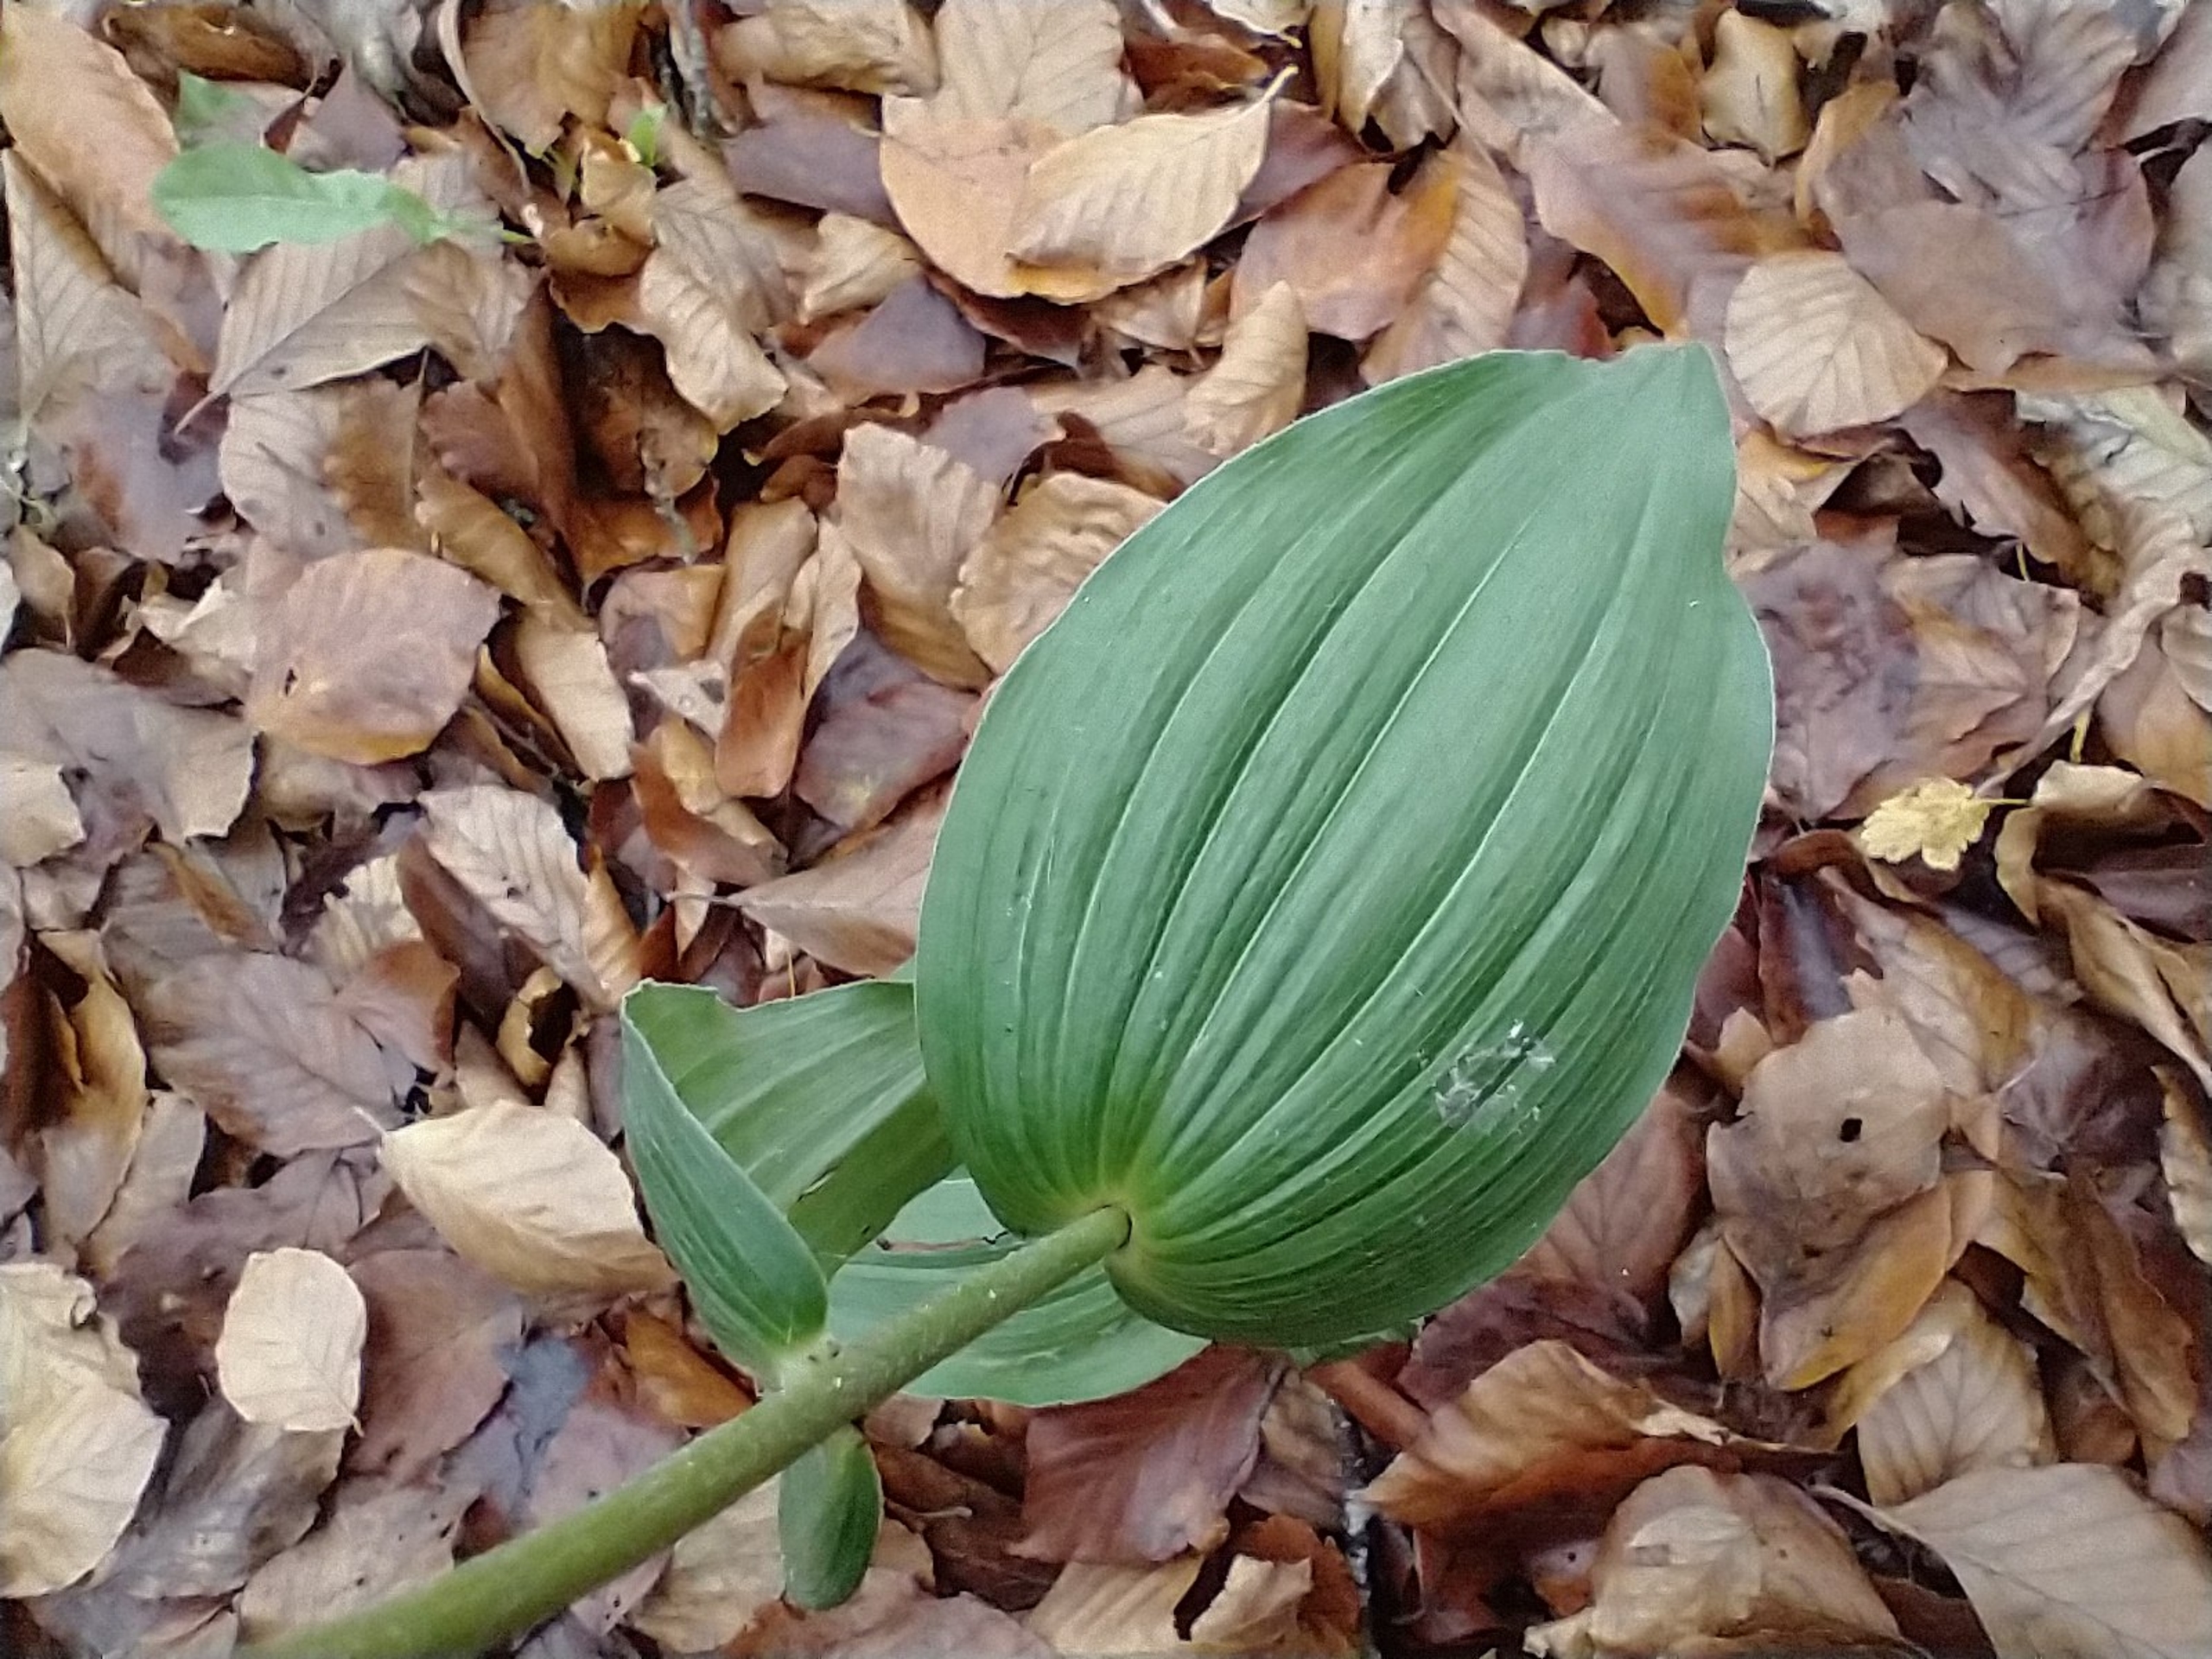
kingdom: Plantae
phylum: Tracheophyta
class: Liliopsida
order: Asparagales
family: Orchidaceae
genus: Epipactis
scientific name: Epipactis helleborine
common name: Skov-hullæbe
